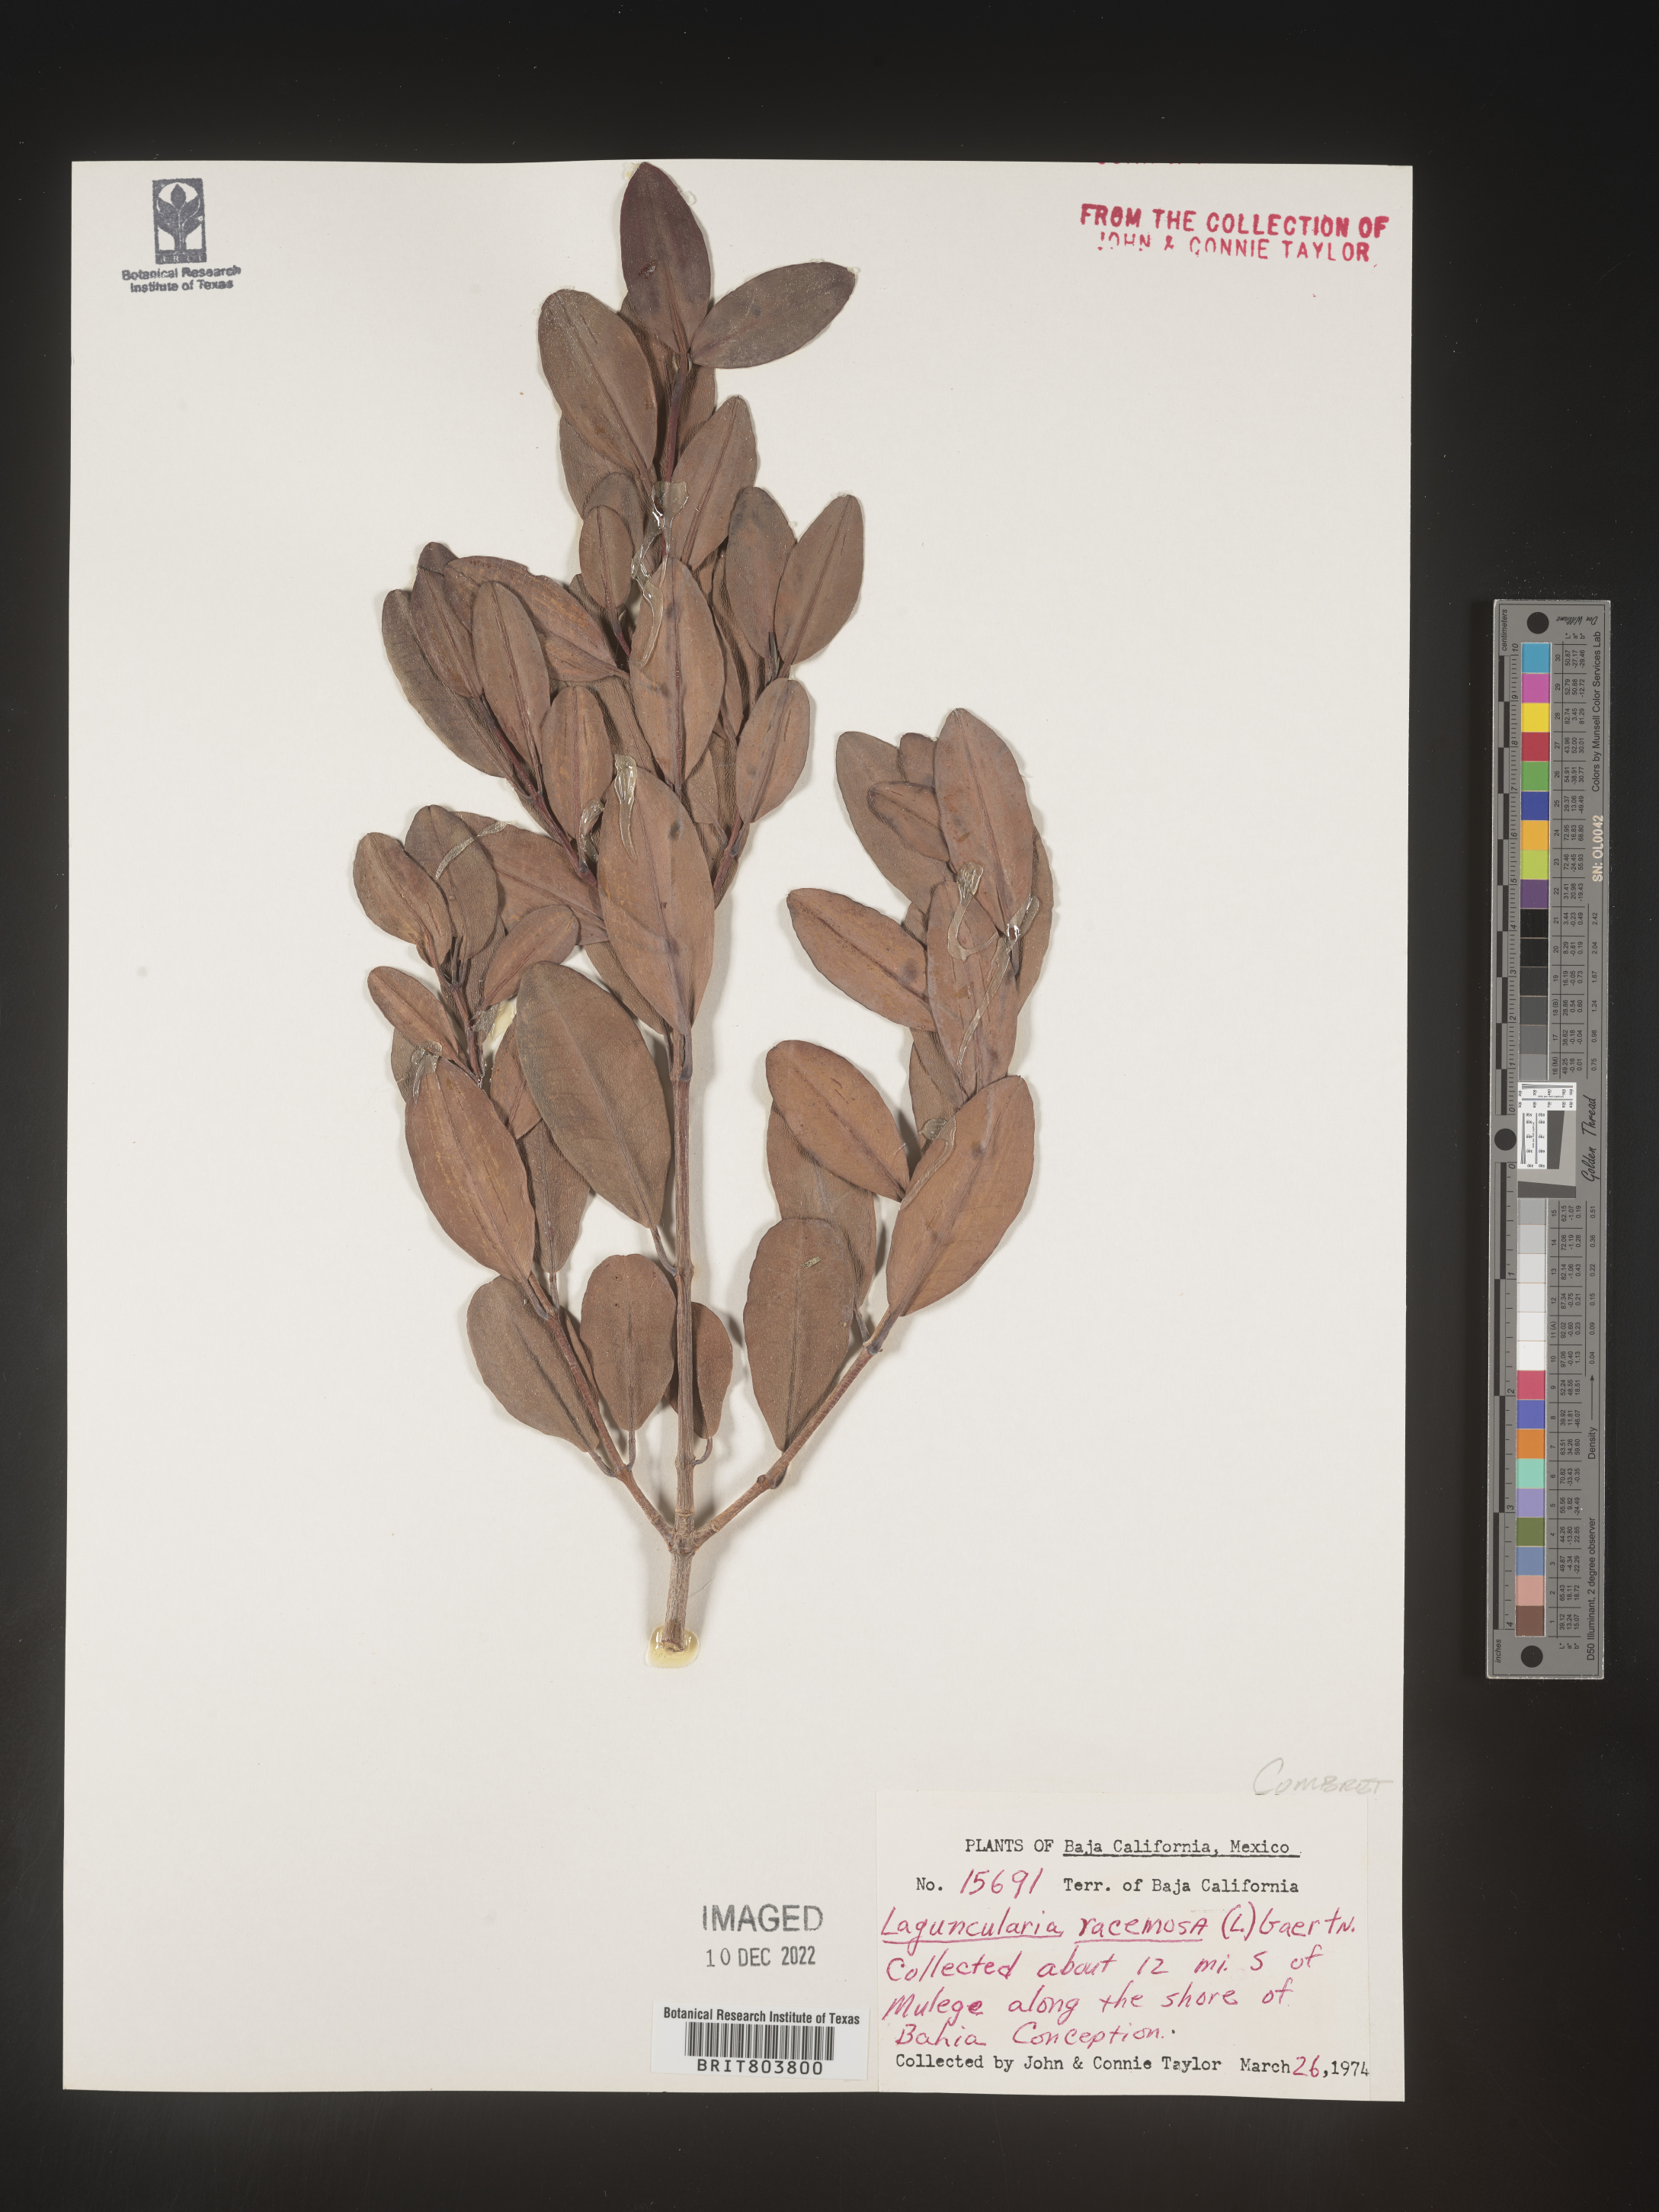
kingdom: Plantae
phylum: Tracheophyta
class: Magnoliopsida
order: Myrtales
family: Combretaceae
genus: Laguncularia
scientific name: Laguncularia
